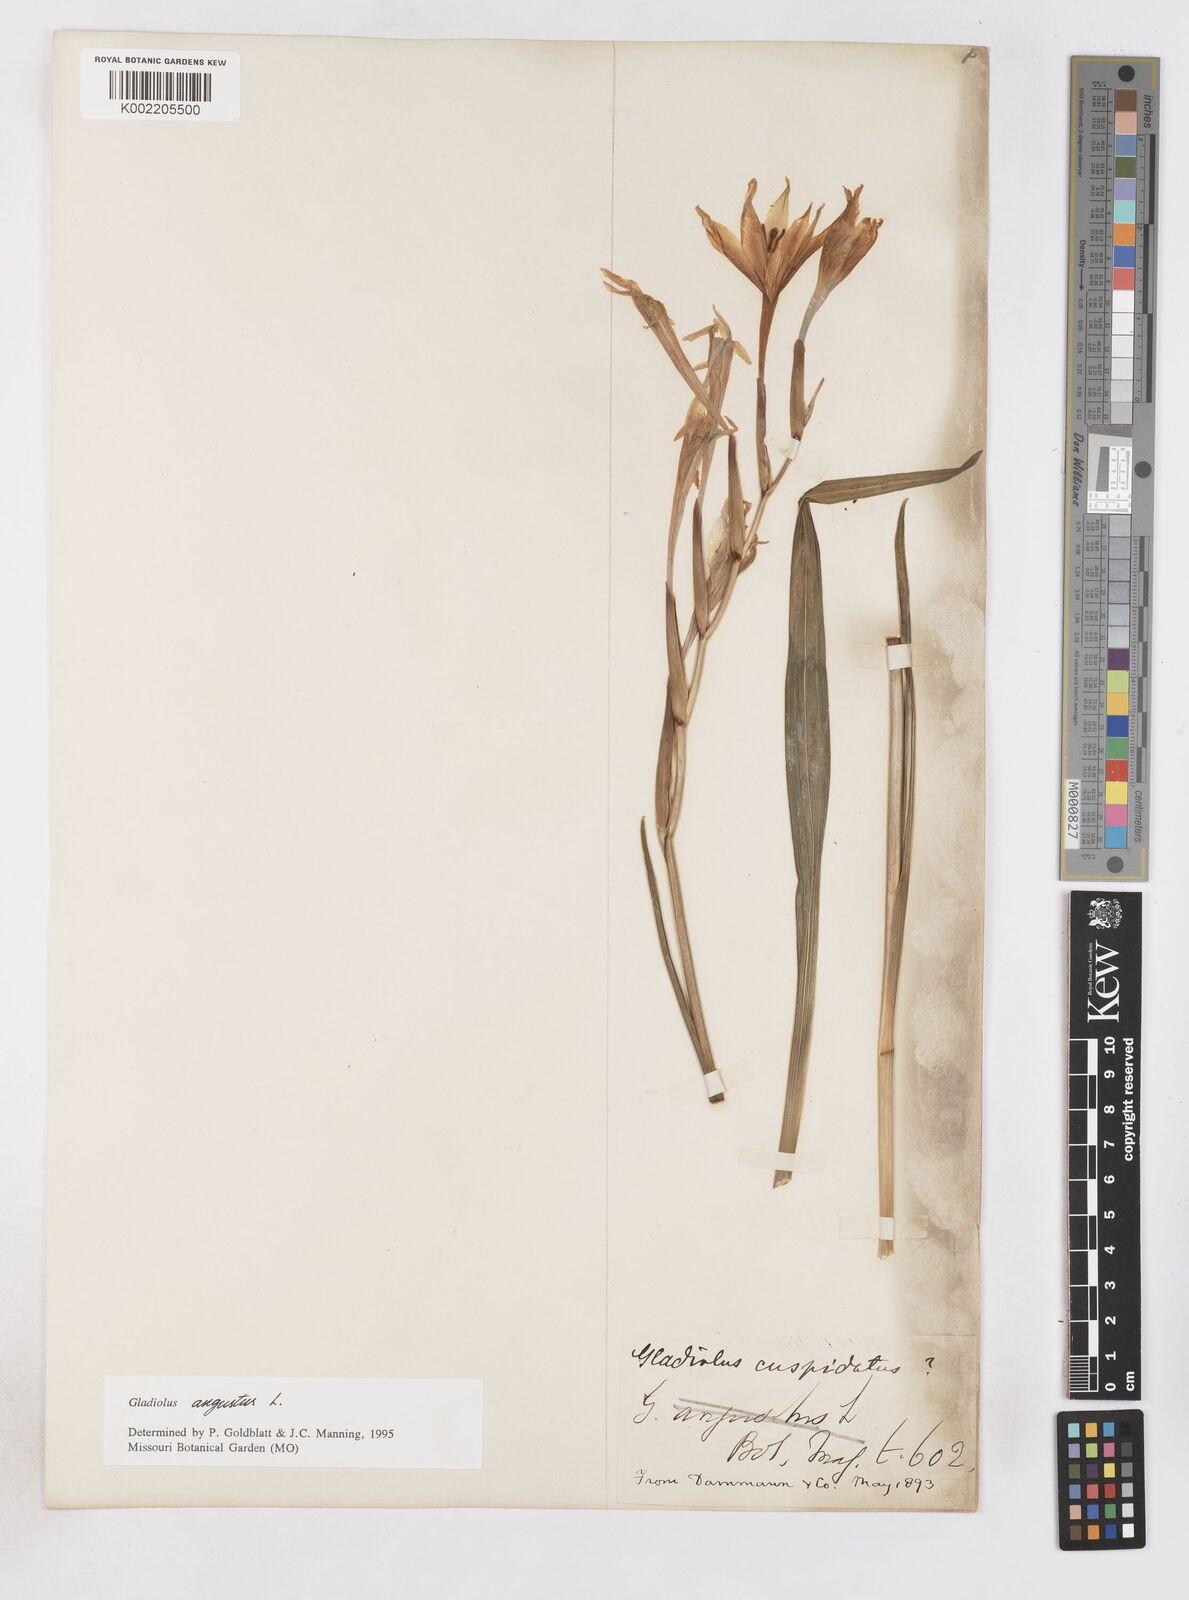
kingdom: Plantae
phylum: Tracheophyta
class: Liliopsida
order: Asparagales
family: Iridaceae
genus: Gladiolus
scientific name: Gladiolus angustus
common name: Painted-lady
